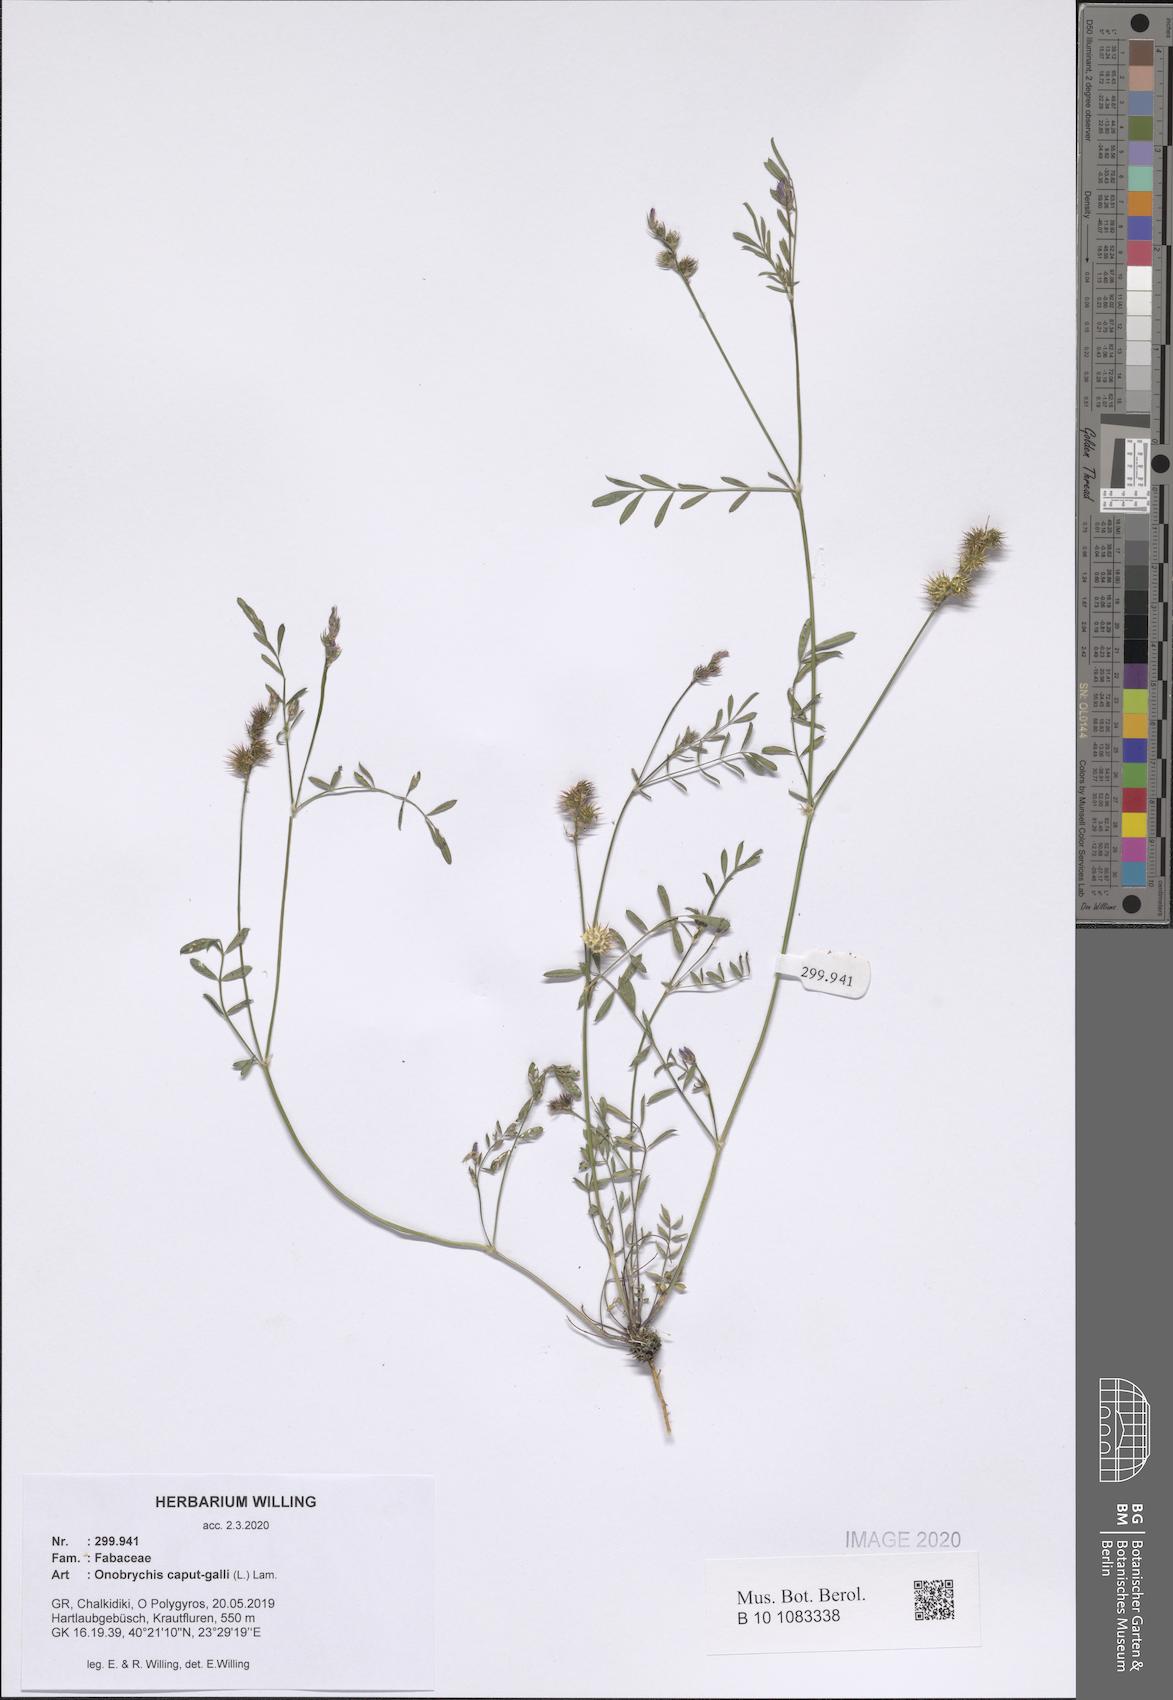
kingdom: Plantae
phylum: Tracheophyta
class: Magnoliopsida
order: Fabales
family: Fabaceae
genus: Onobrychis
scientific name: Onobrychis caput-galli
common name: Cockscomb sainfoin
